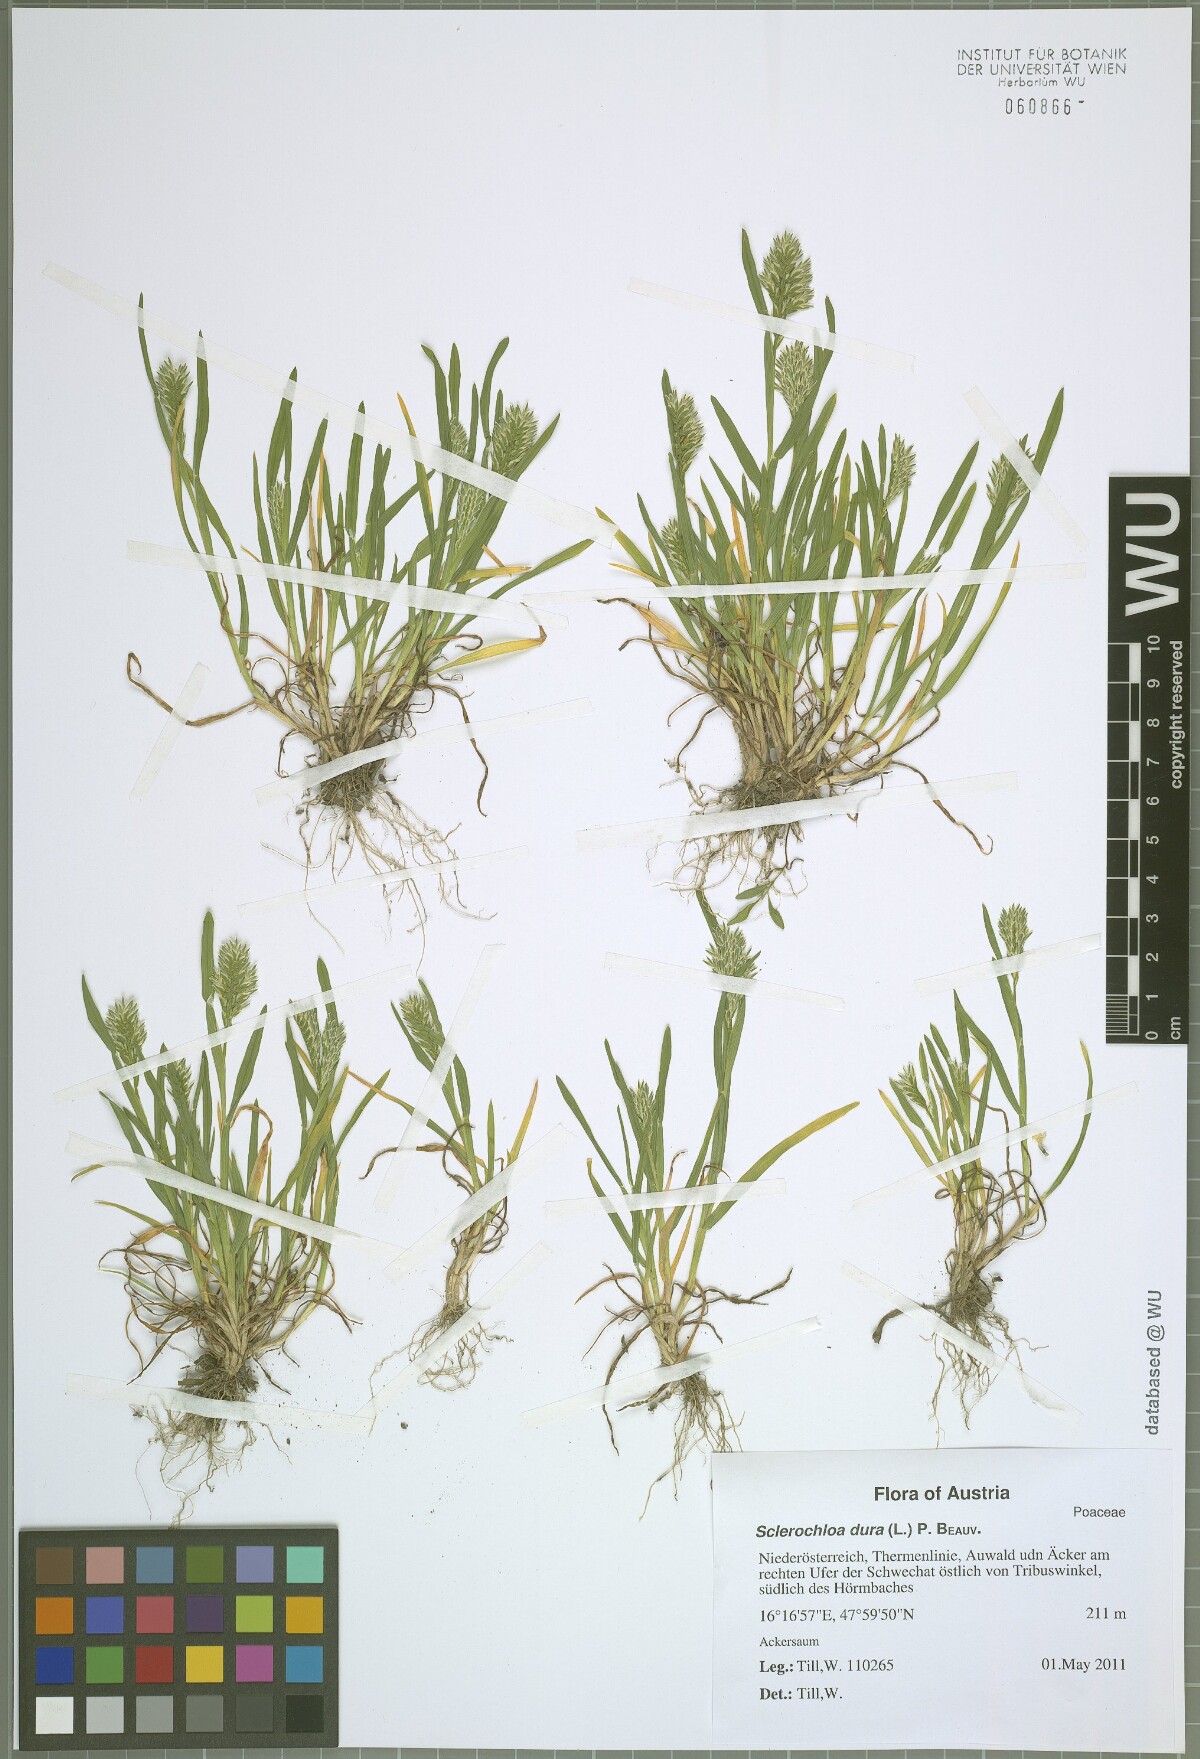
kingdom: Plantae
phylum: Tracheophyta
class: Liliopsida
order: Poales
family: Poaceae
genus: Sclerochloa
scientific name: Sclerochloa dura
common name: Common hardgrass
